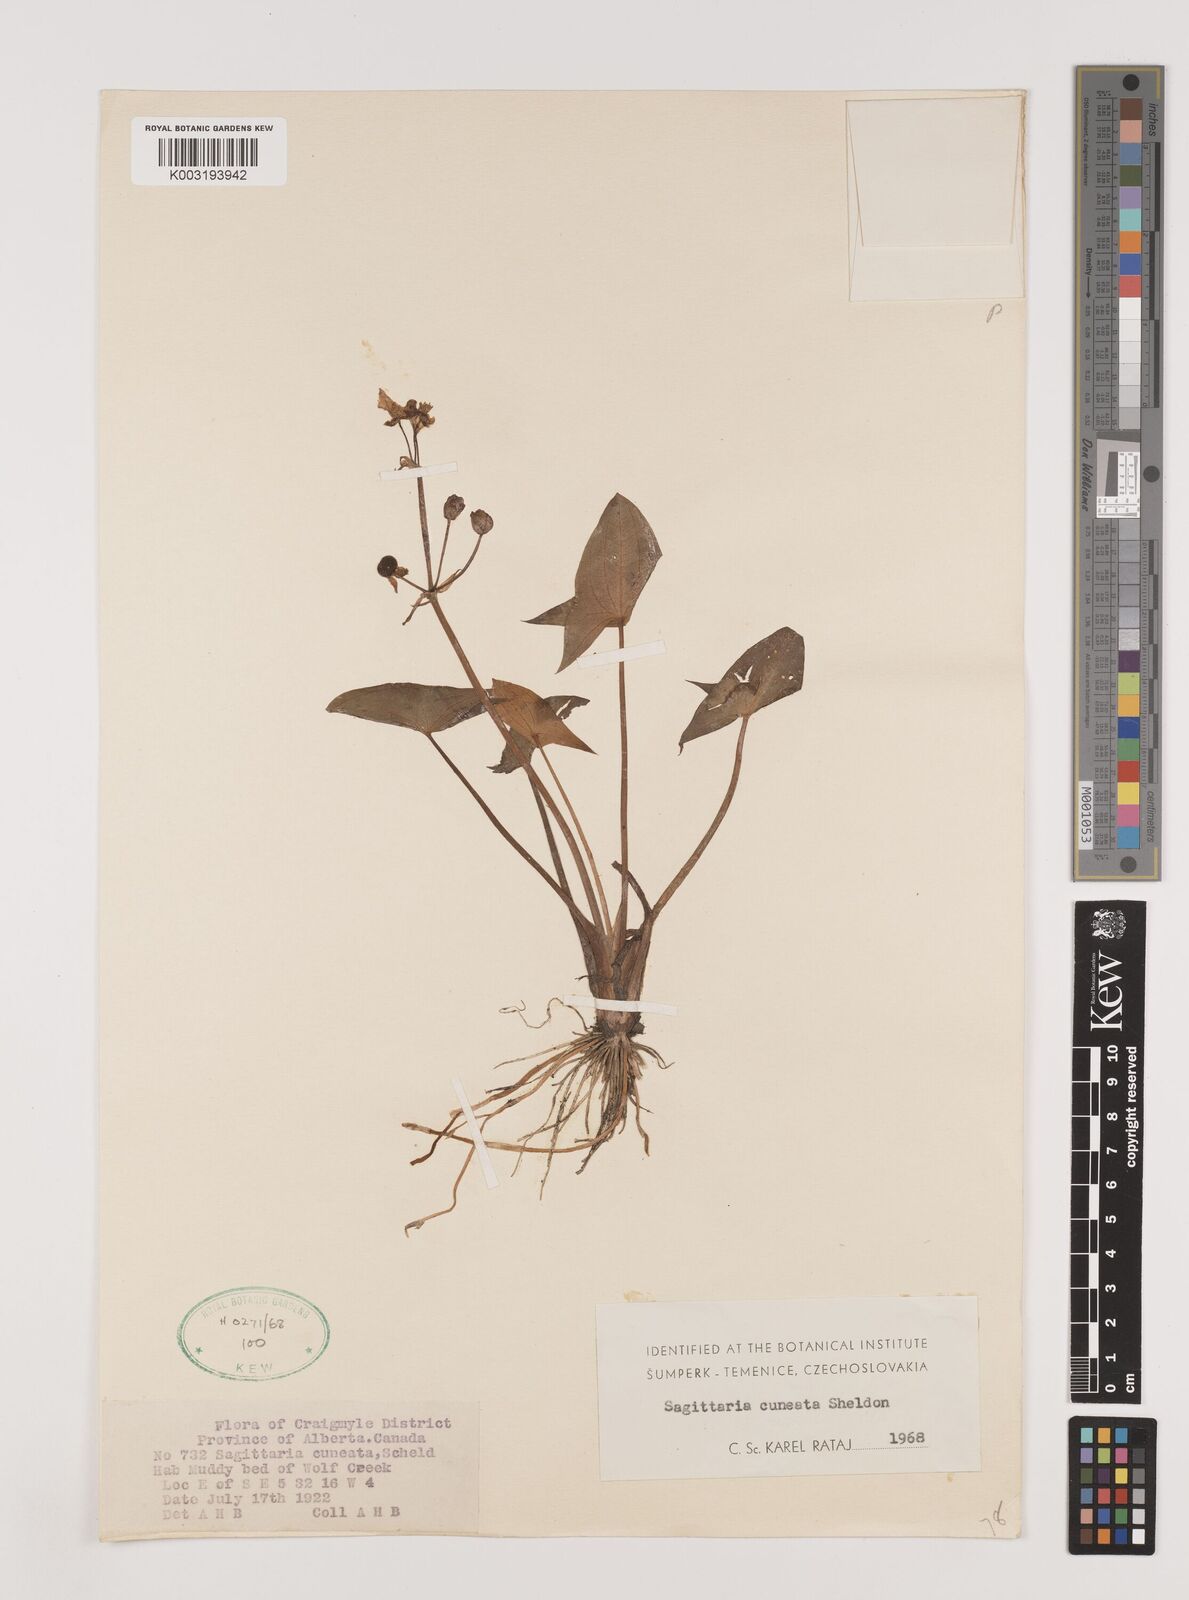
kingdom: Plantae
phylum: Tracheophyta
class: Liliopsida
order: Alismatales
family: Alismataceae
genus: Sagittaria
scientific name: Sagittaria cuneata
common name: Northern arrowhead
